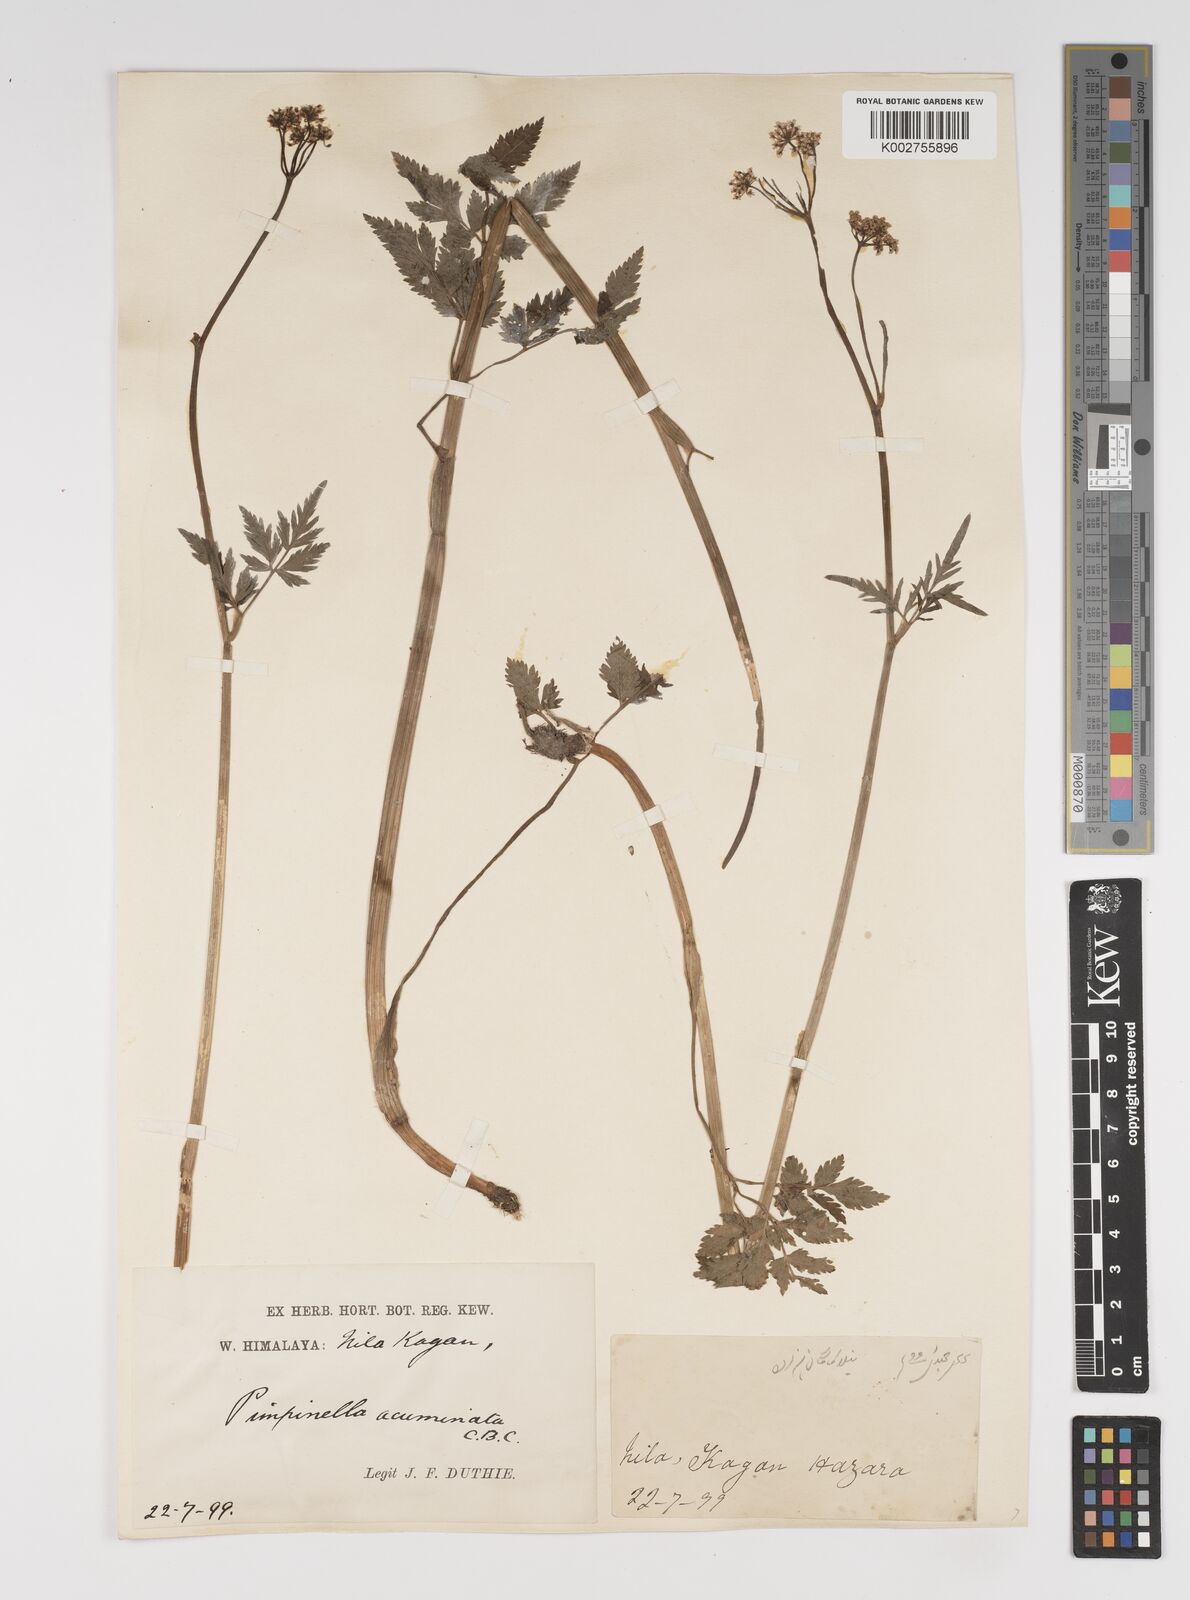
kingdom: Plantae
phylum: Tracheophyta
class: Magnoliopsida
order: Apiales
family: Apiaceae
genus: Pimpinella
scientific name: Pimpinella acuminata
